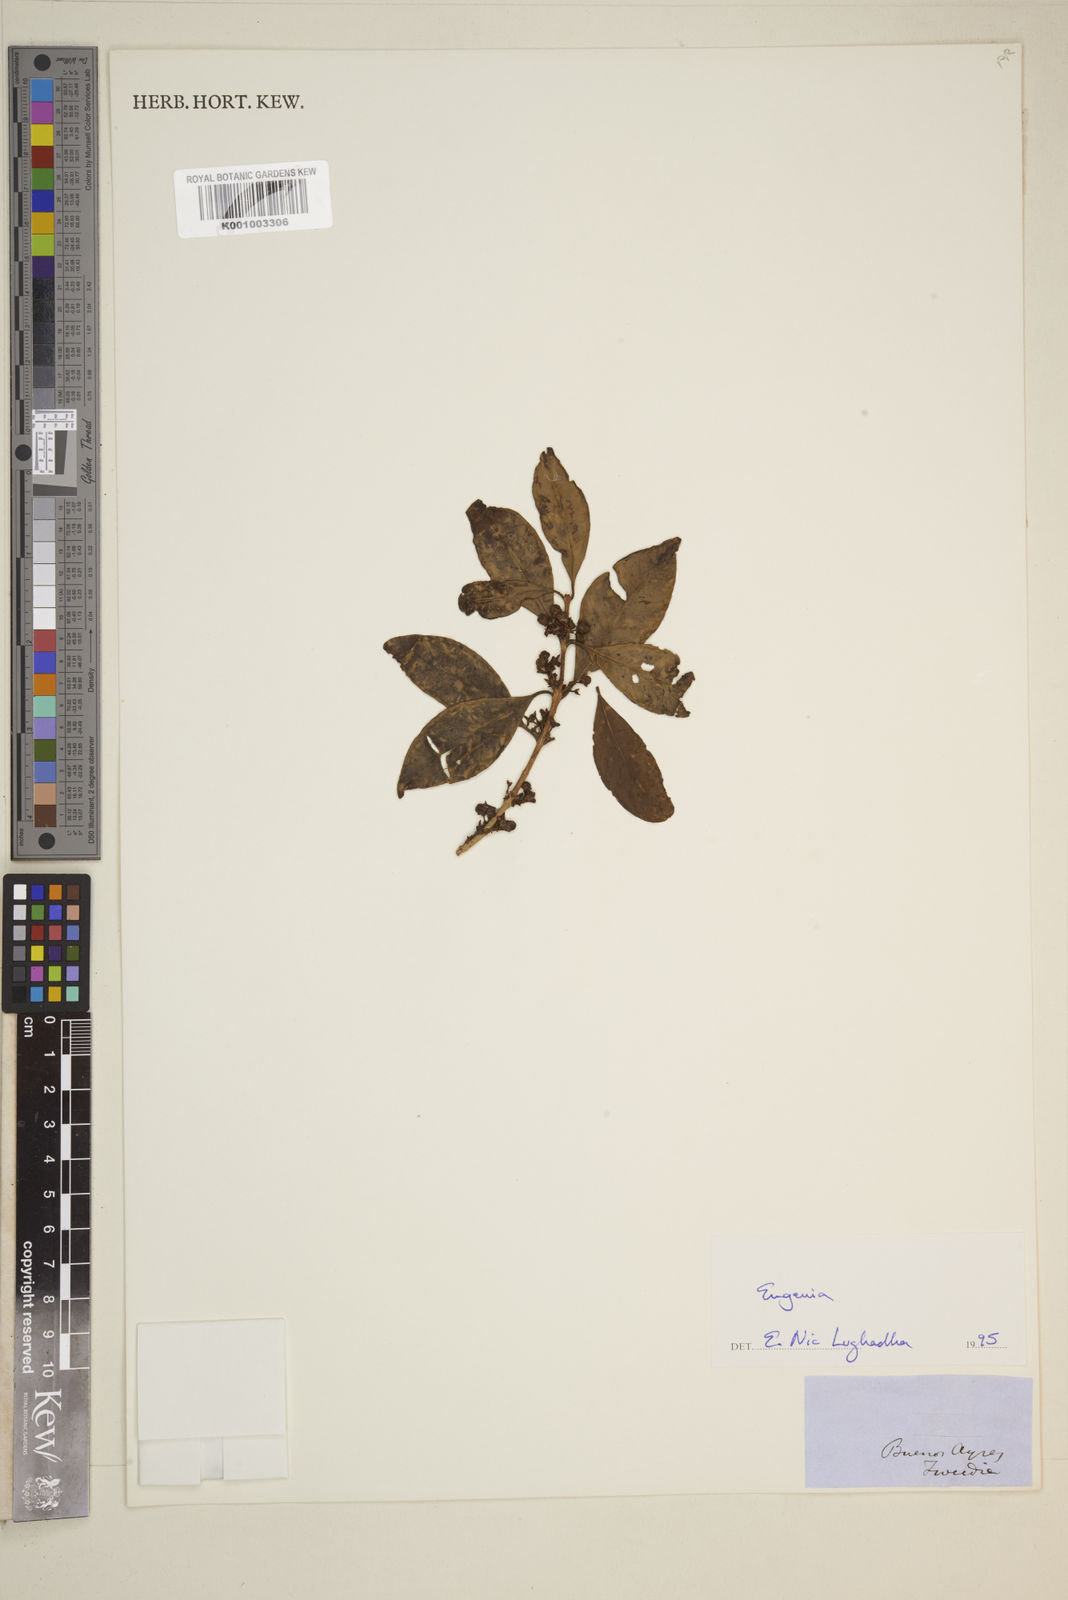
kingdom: Plantae
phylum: Tracheophyta
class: Magnoliopsida
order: Myrtales
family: Myrtaceae
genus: Eugenia
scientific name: Eugenia
